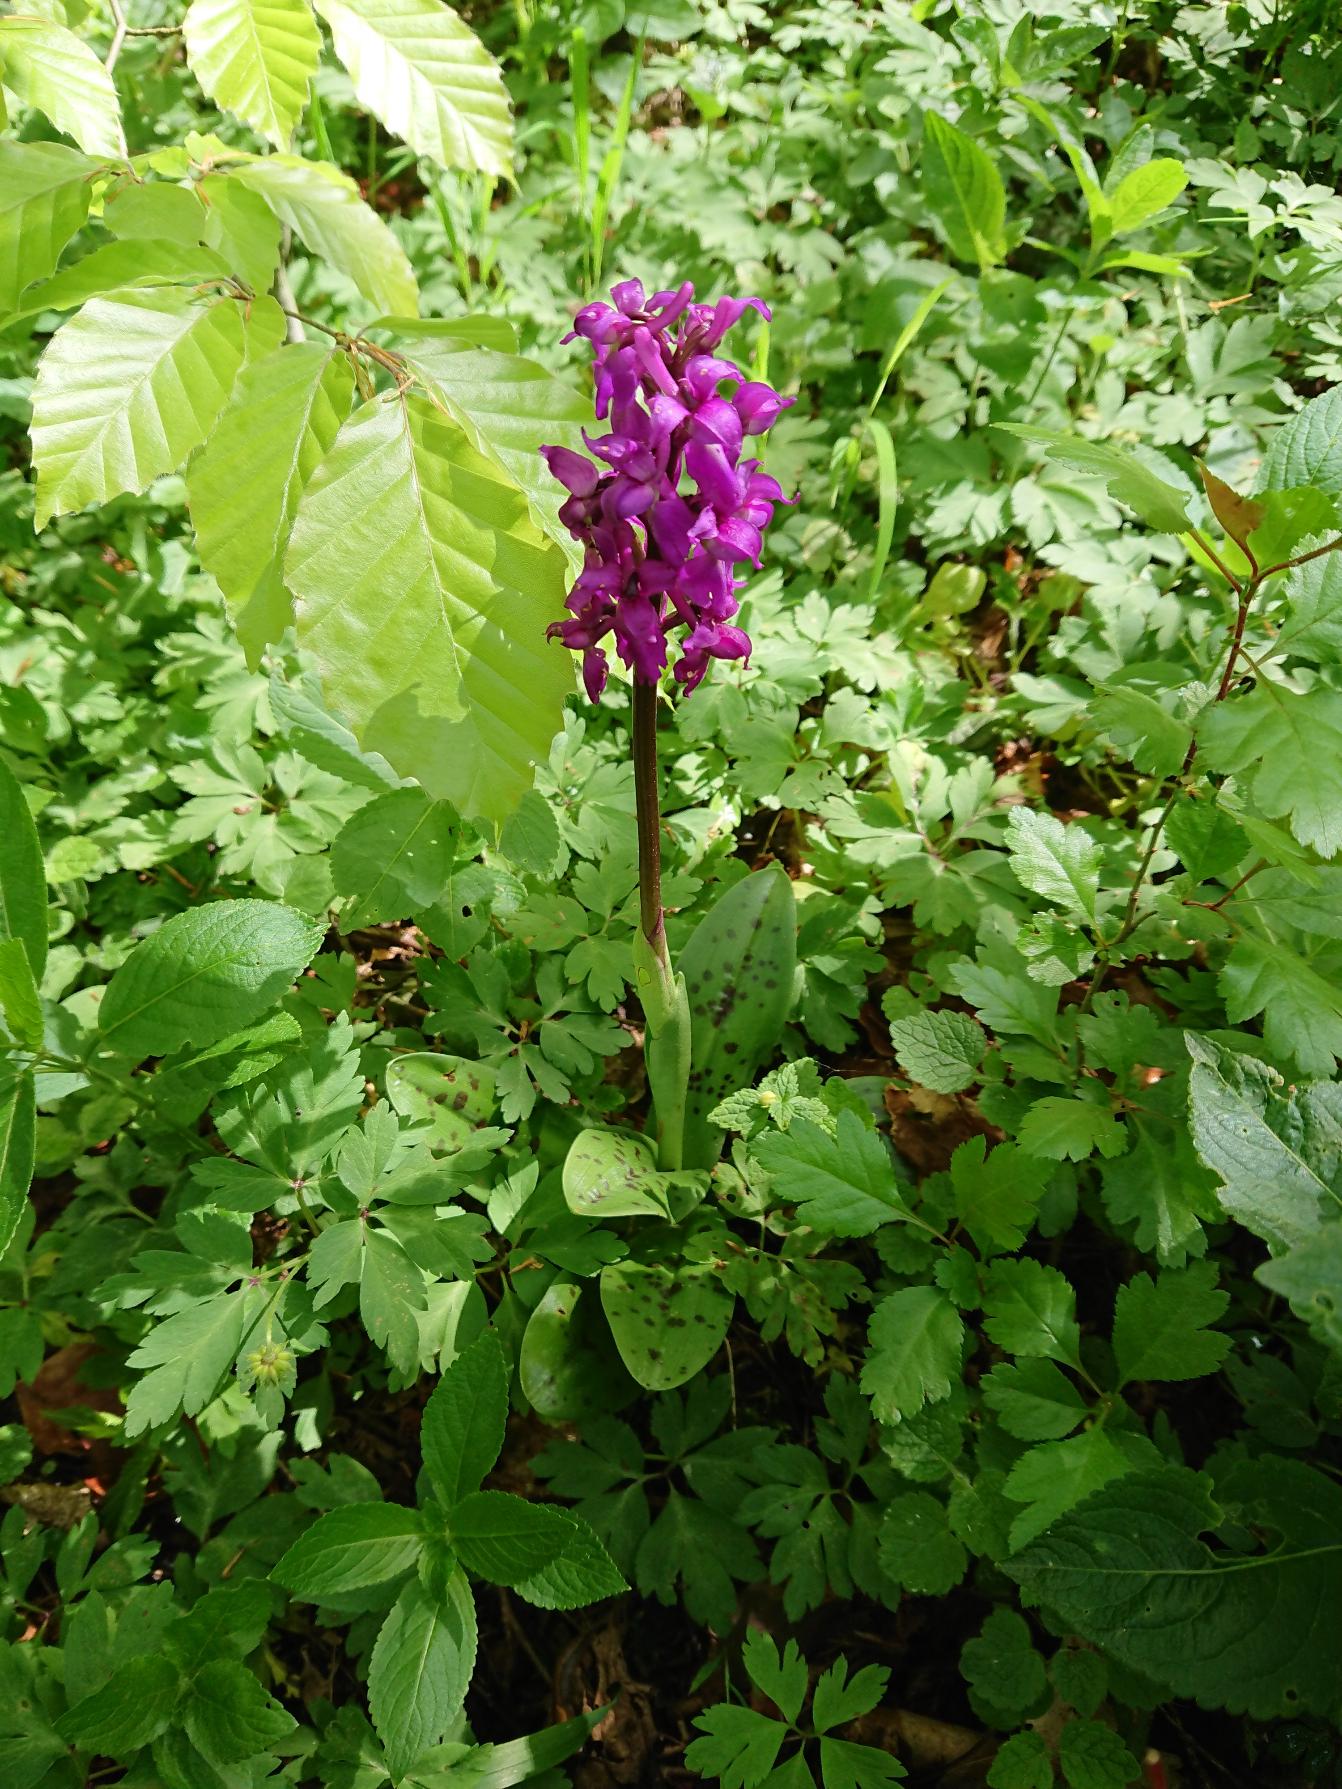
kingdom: Plantae
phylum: Tracheophyta
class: Liliopsida
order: Asparagales
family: Orchidaceae
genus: Orchis
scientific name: Orchis mascula
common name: Tyndakset gøgeurt
